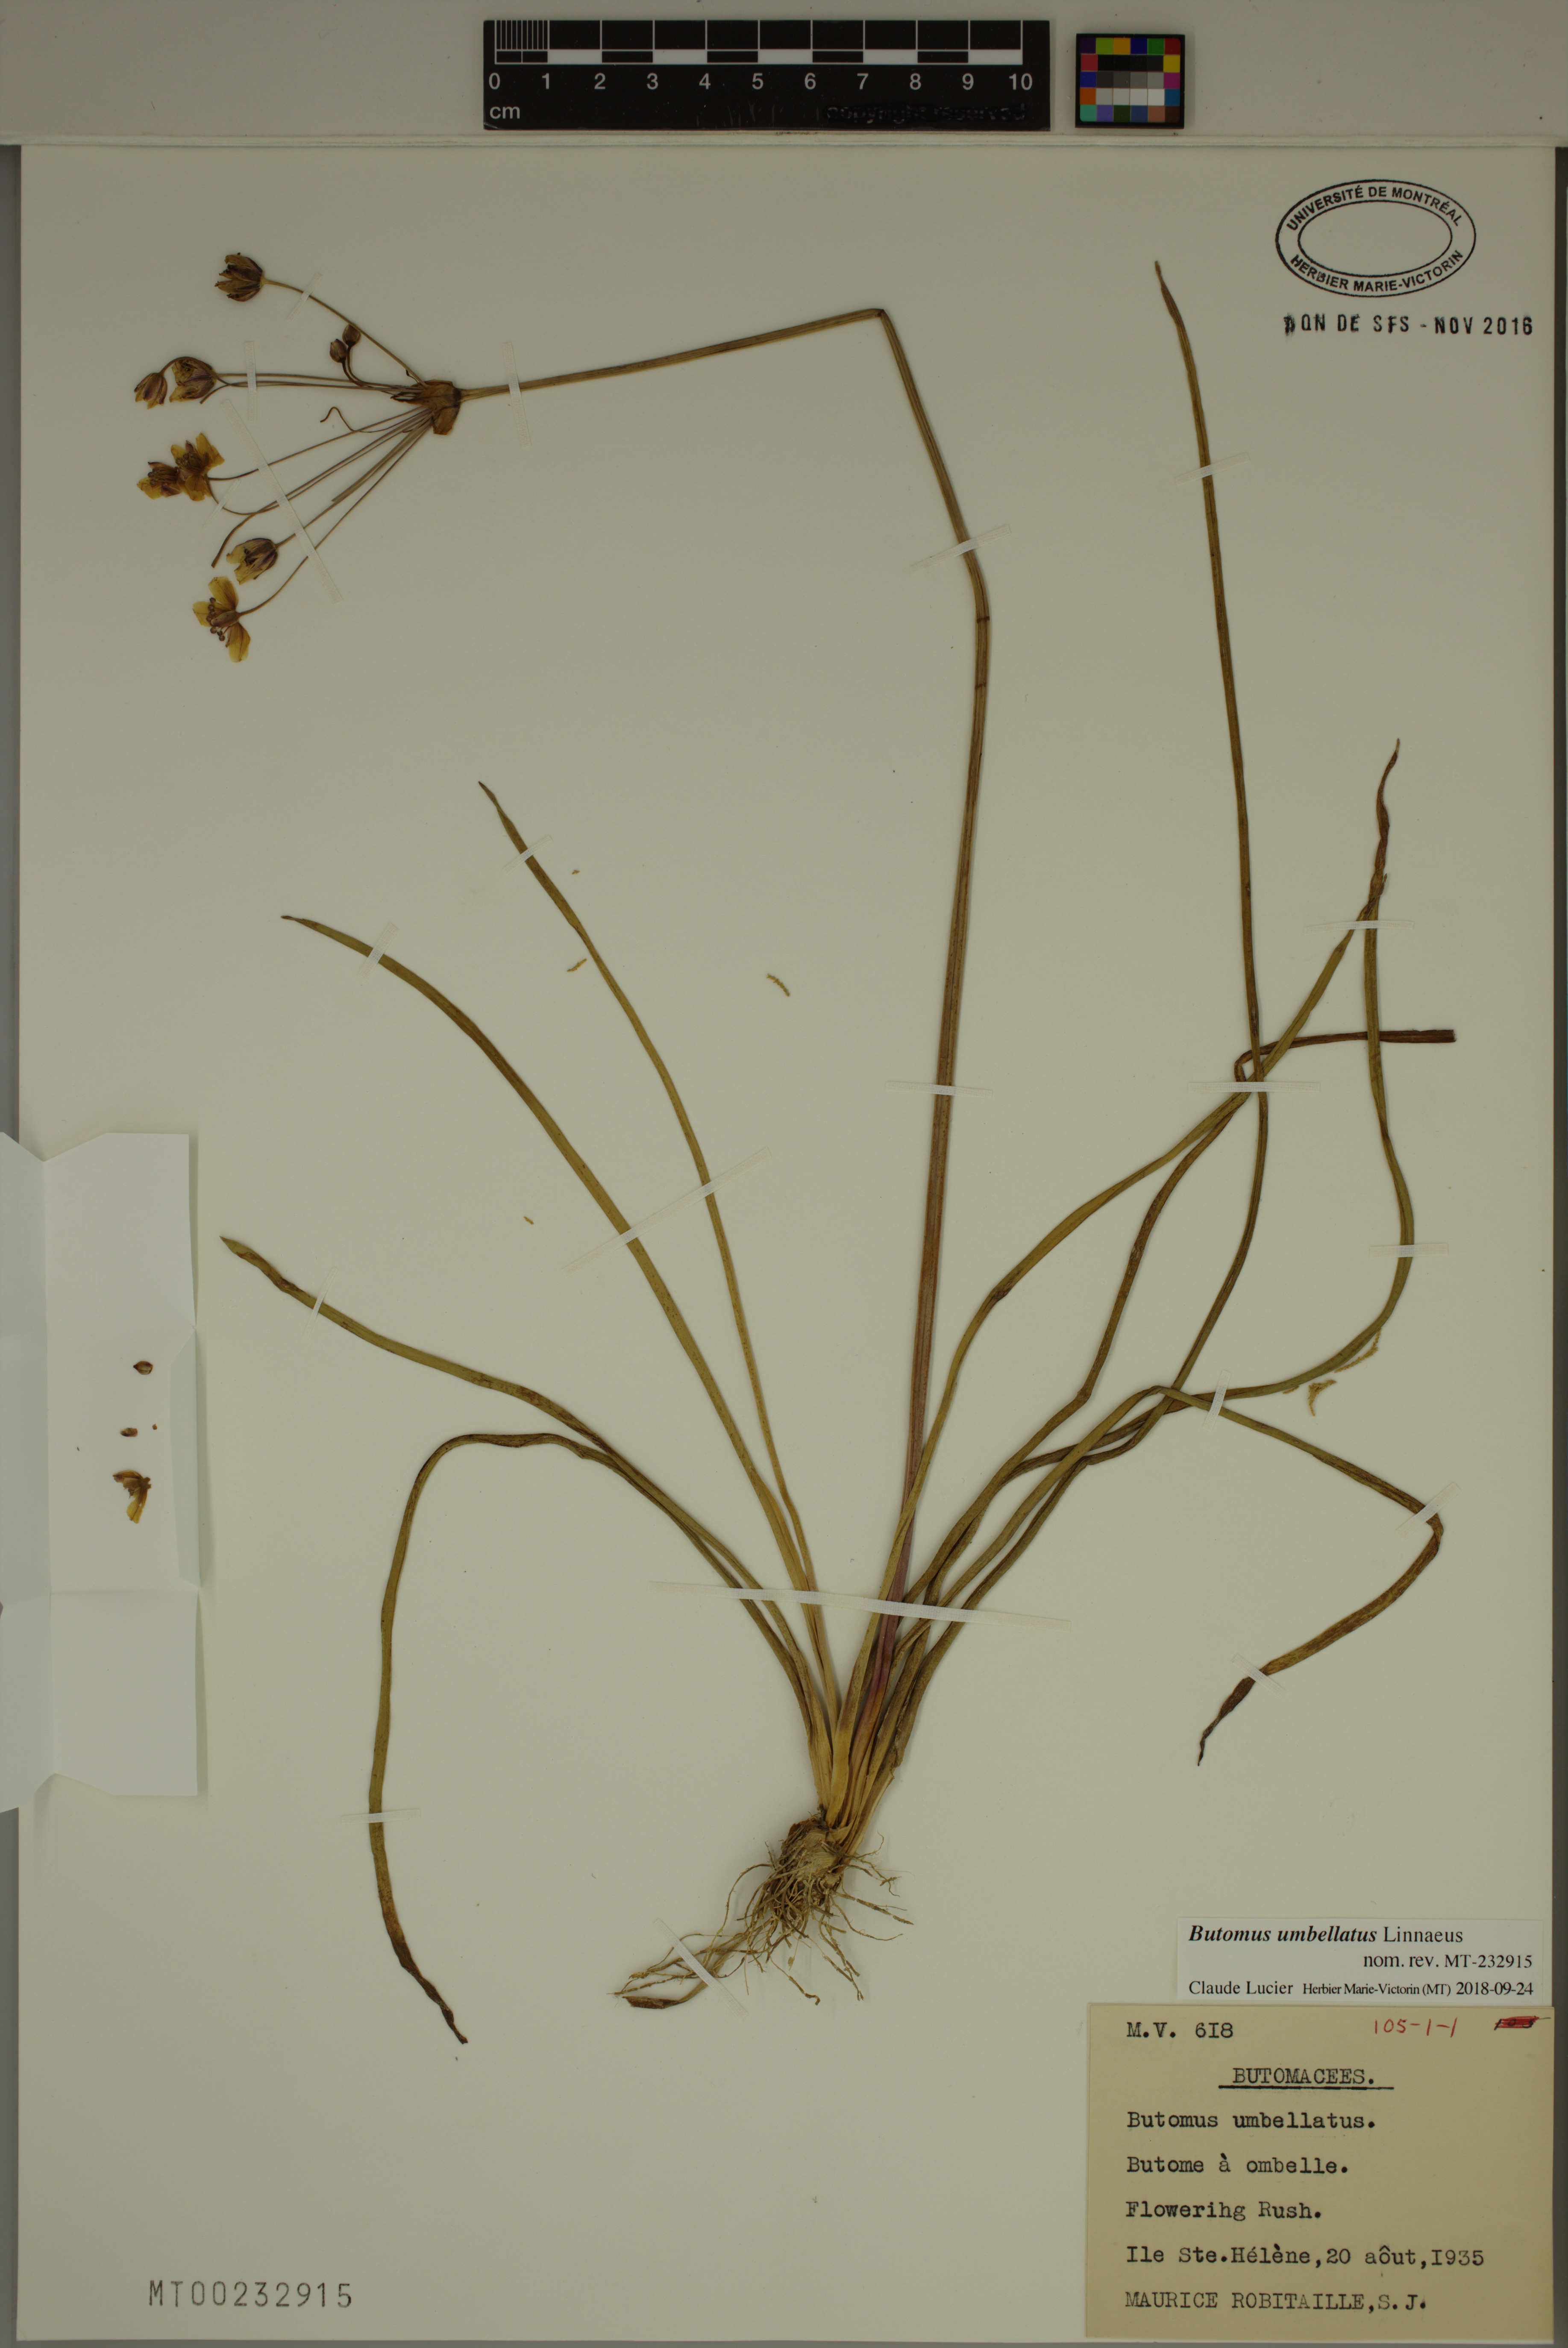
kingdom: Plantae
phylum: Tracheophyta
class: Liliopsida
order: Alismatales
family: Butomaceae
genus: Butomus
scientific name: Butomus umbellatus
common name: Flowering-rush
